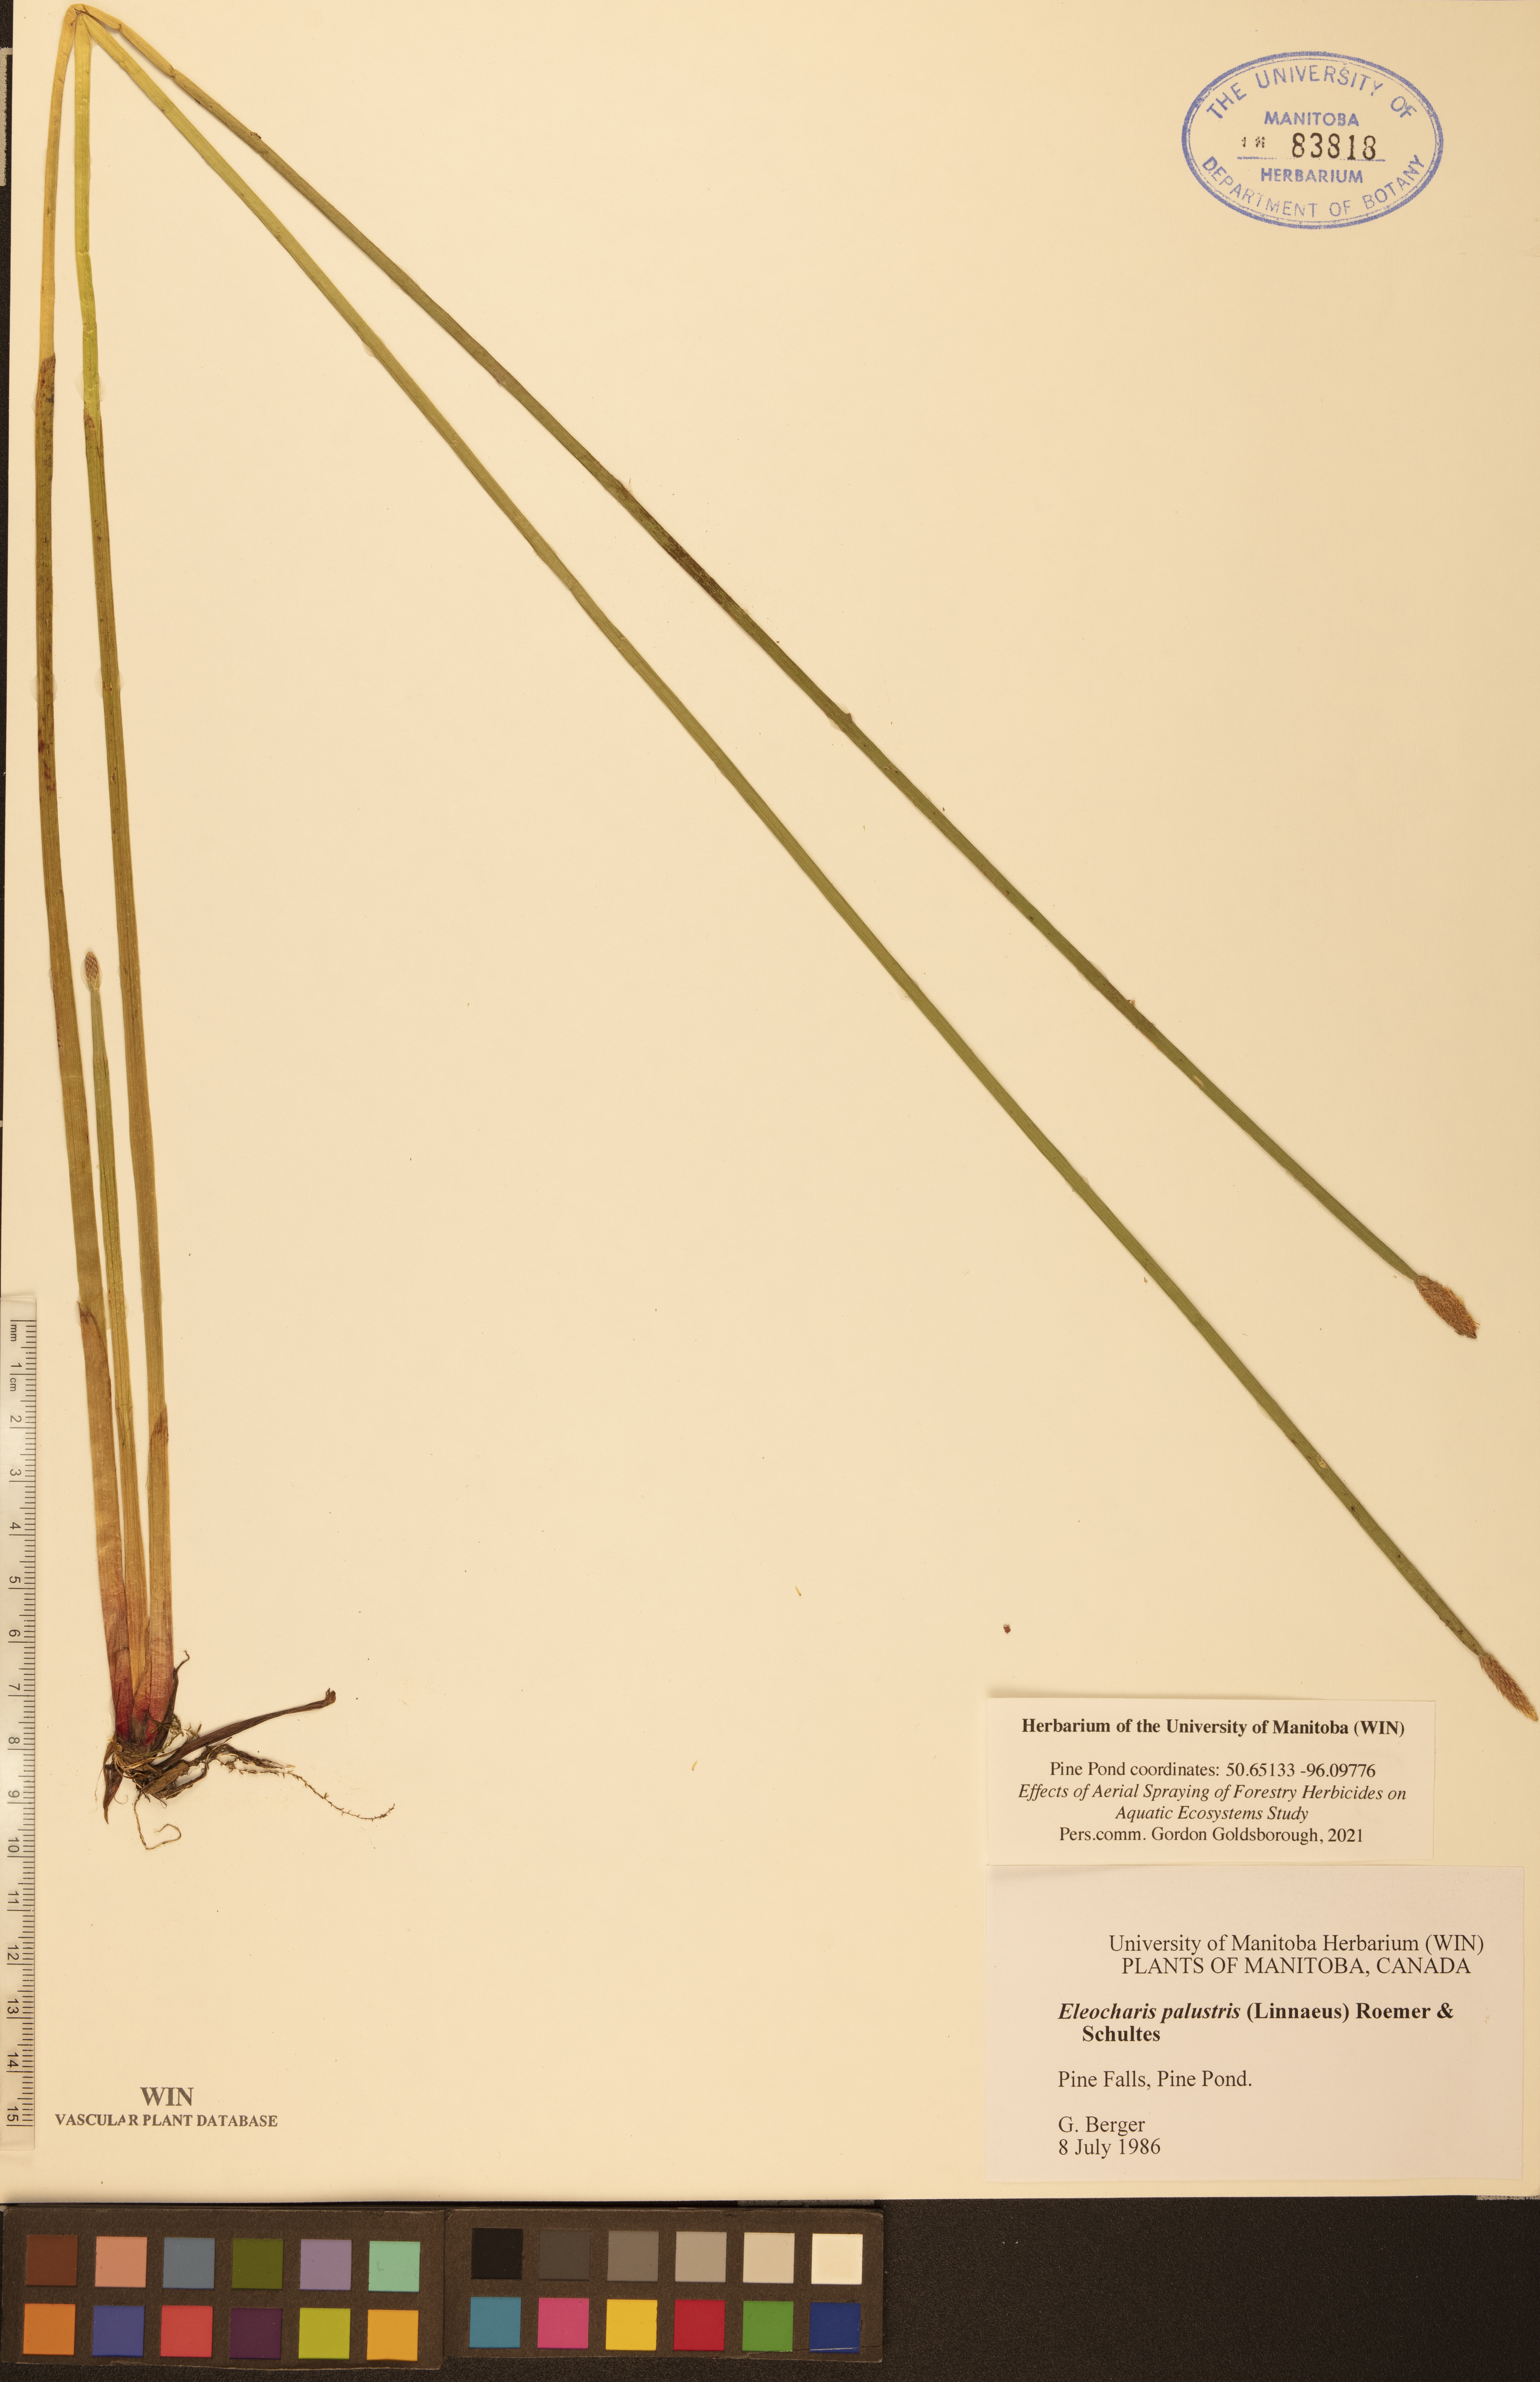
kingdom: Plantae
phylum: Tracheophyta
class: Liliopsida
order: Poales
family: Cyperaceae
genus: Eleocharis
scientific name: Eleocharis palustris
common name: Common spike-rush
